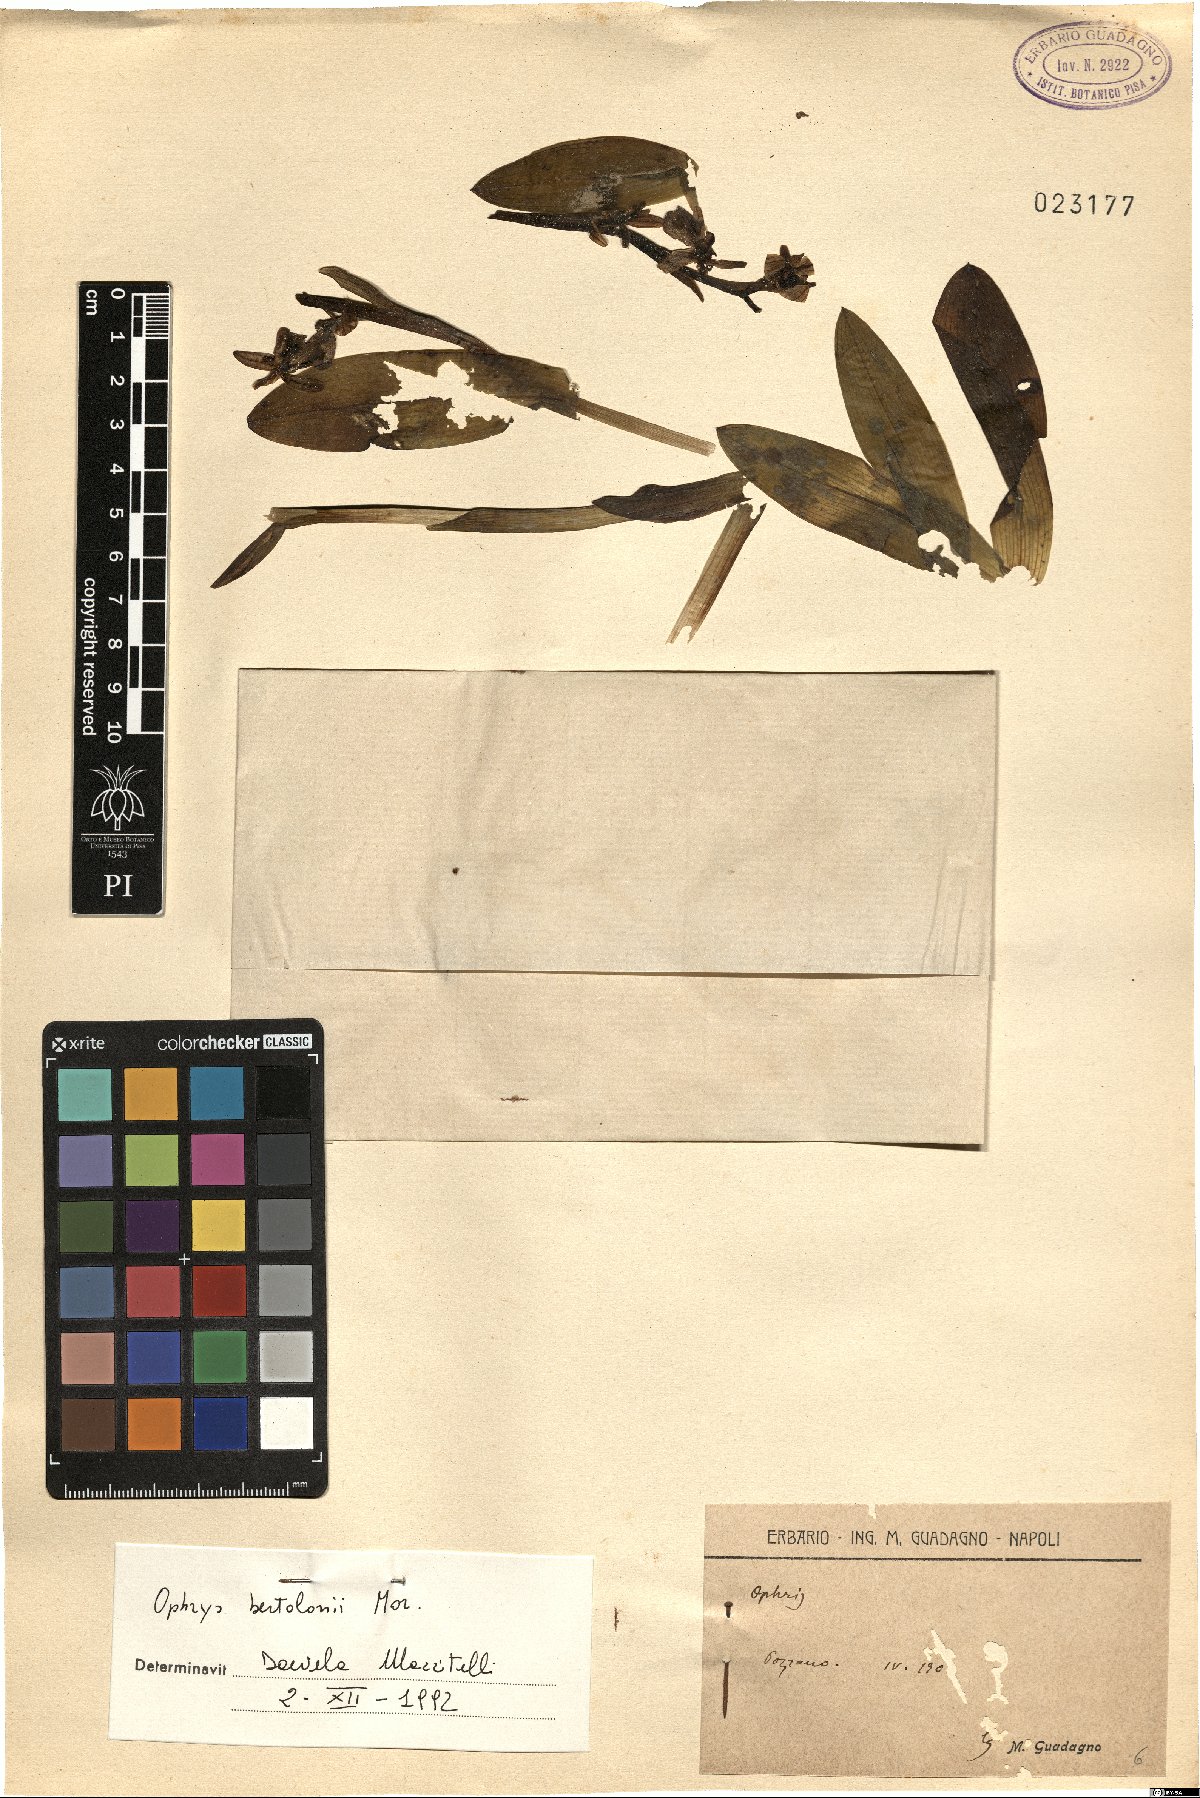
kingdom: Plantae
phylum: Tracheophyta
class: Liliopsida
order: Asparagales
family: Orchidaceae
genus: Ophrys
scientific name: Ophrys bertolonii
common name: Bertoloni's bee orchid
